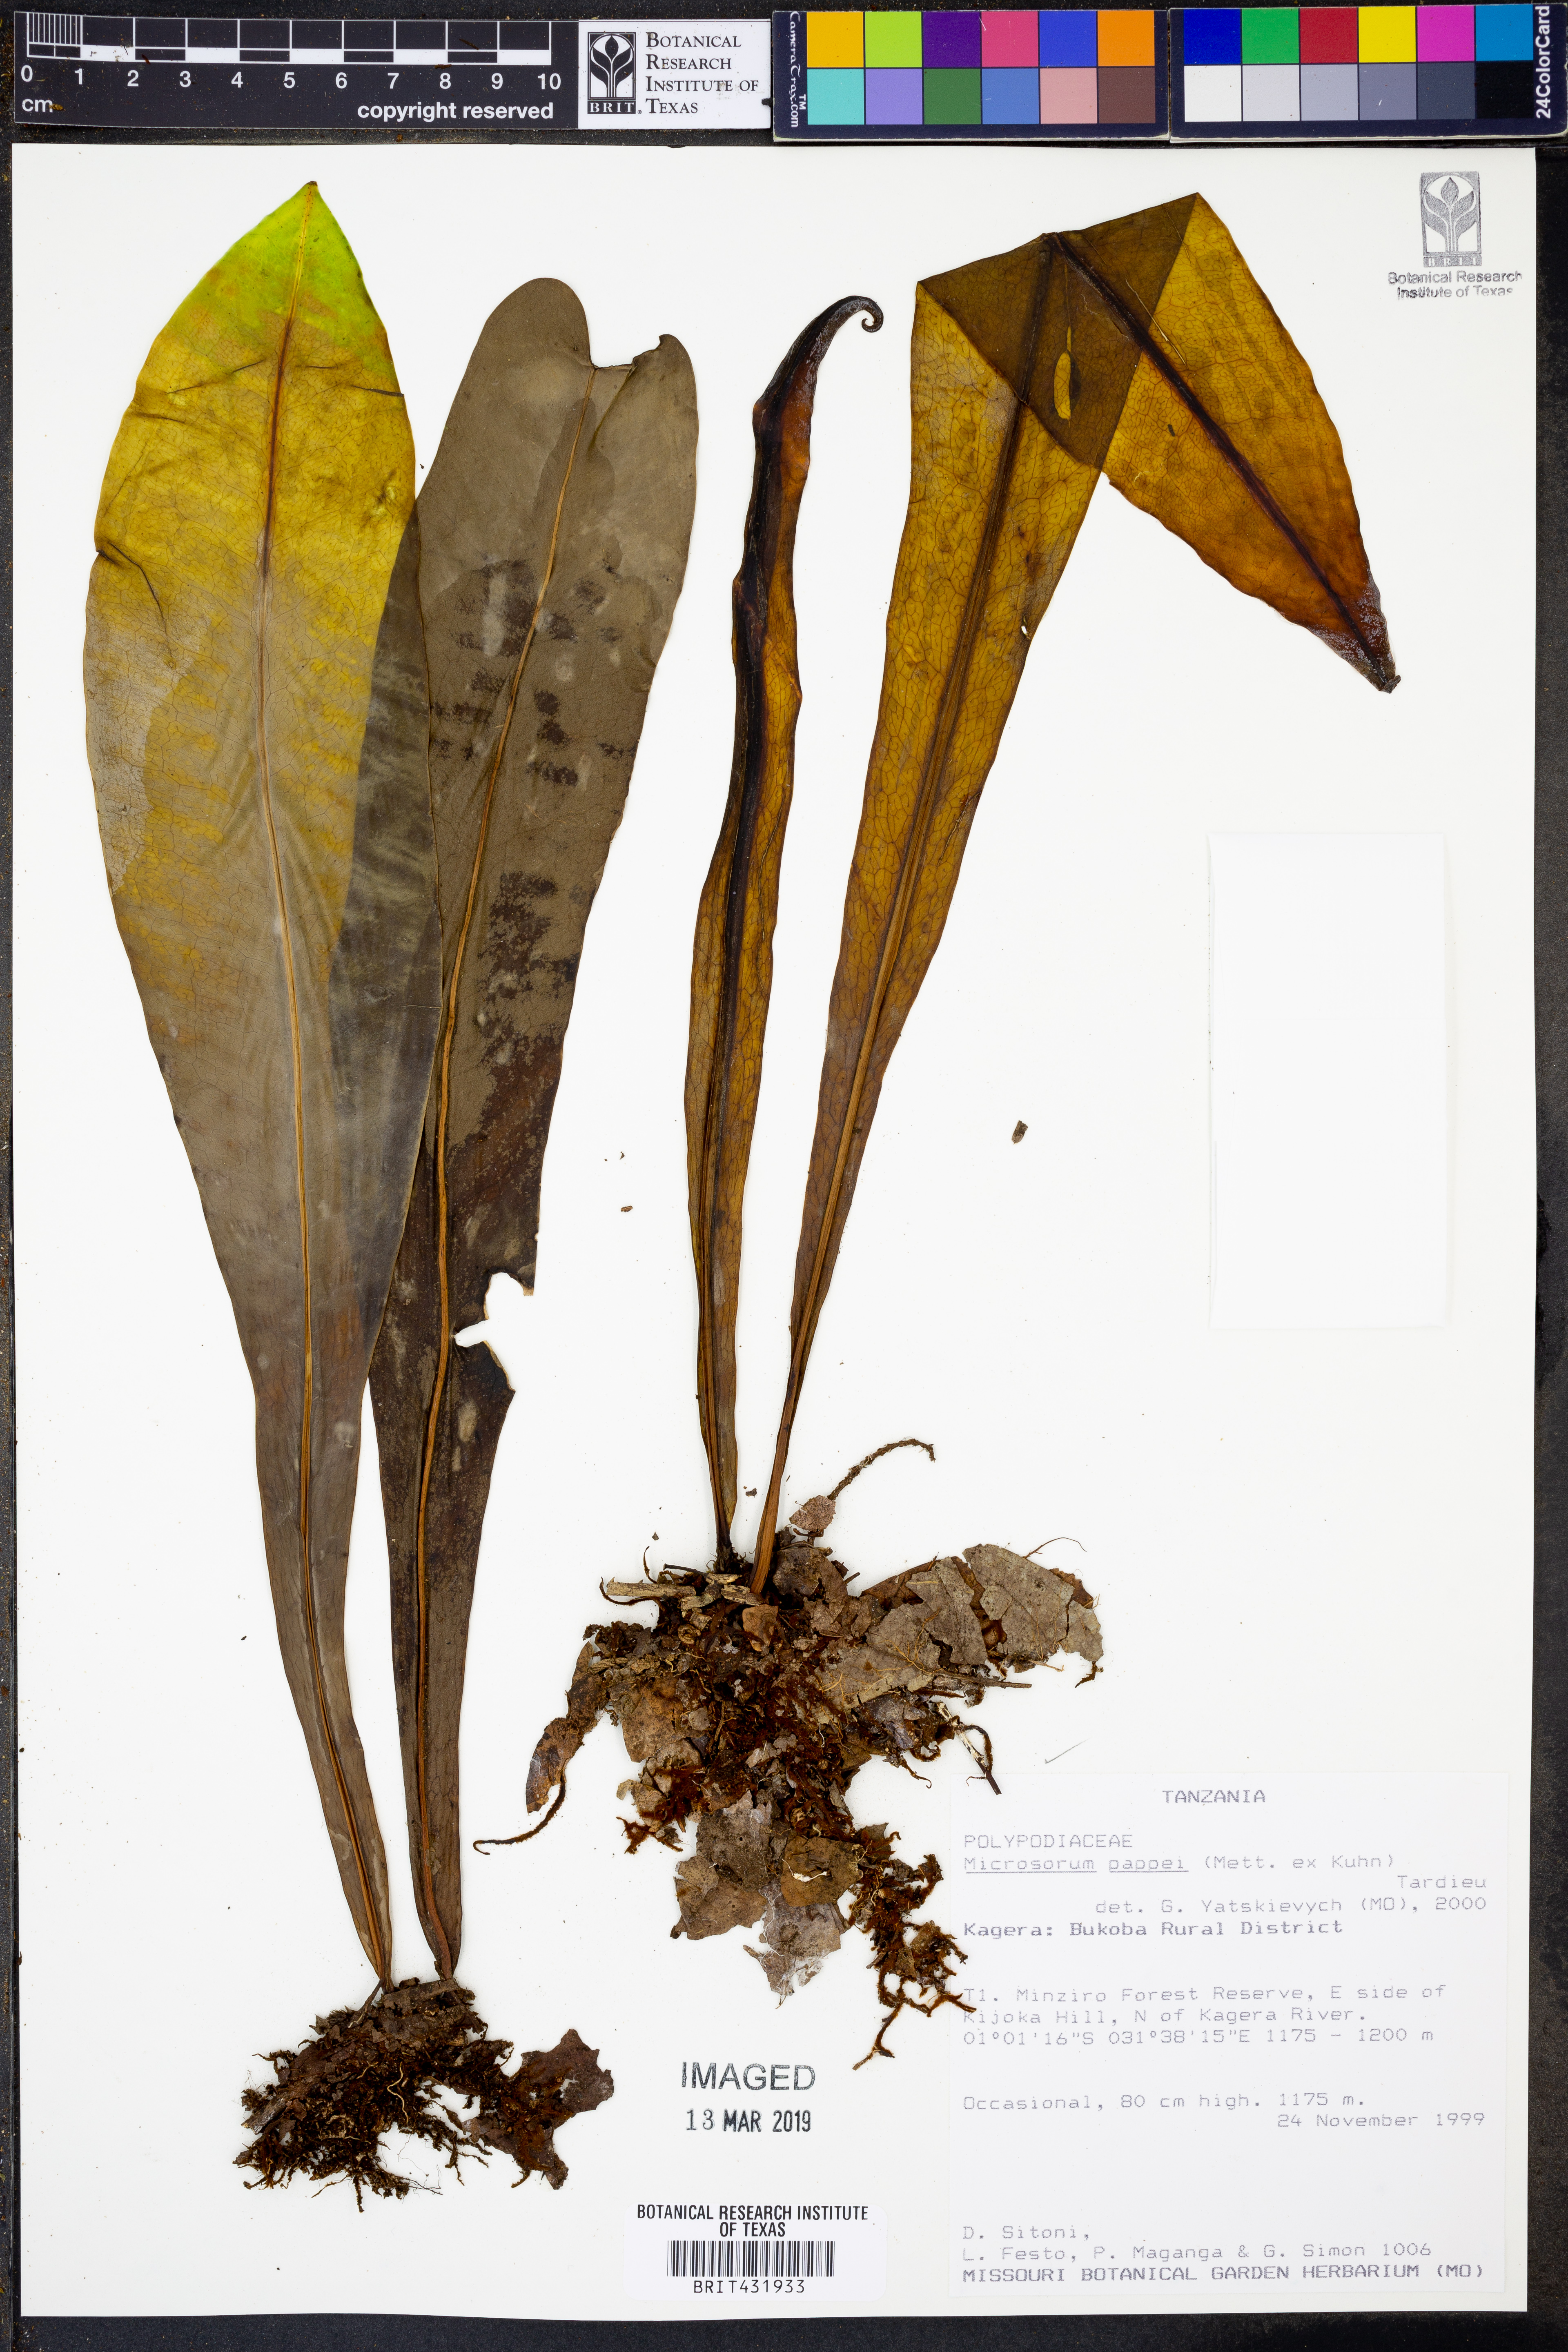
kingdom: Plantae
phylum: Tracheophyta
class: Polypodiopsida
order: Polypodiales
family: Polypodiaceae
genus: Microsorum
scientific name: Microsorum pappei
